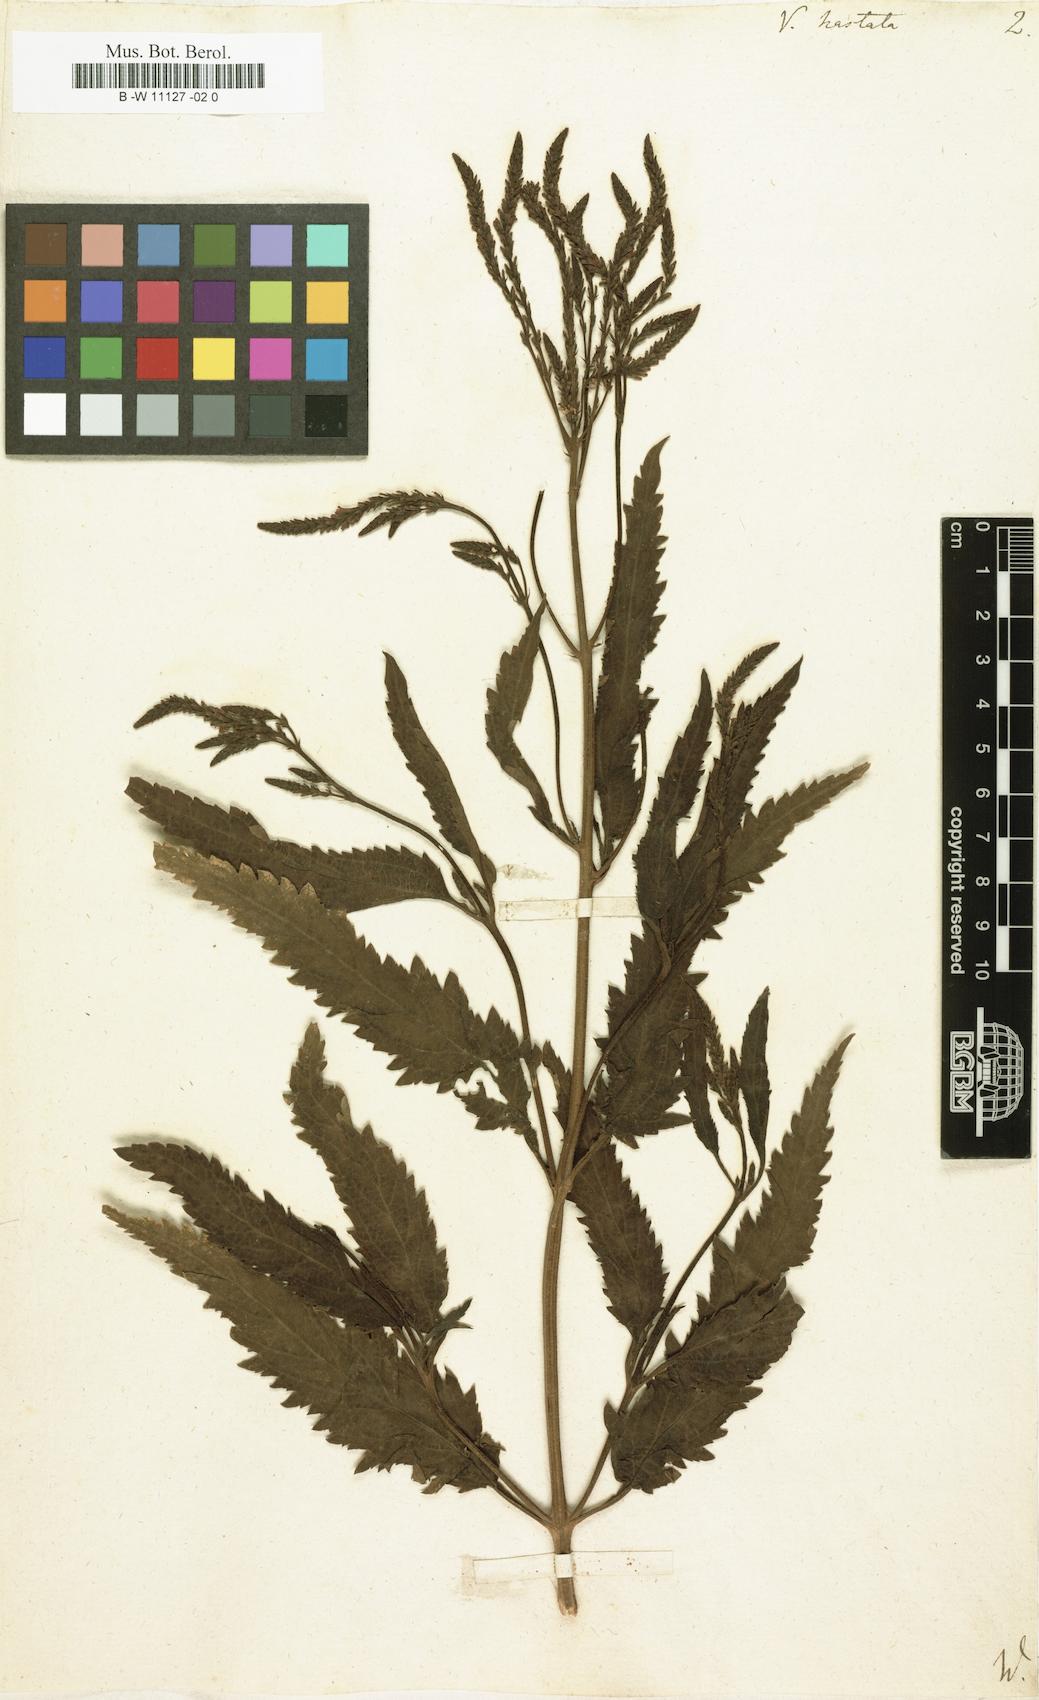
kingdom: Plantae
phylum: Tracheophyta
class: Magnoliopsida
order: Lamiales
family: Verbenaceae
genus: Verbena
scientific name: Verbena hastata
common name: American blue vervain
